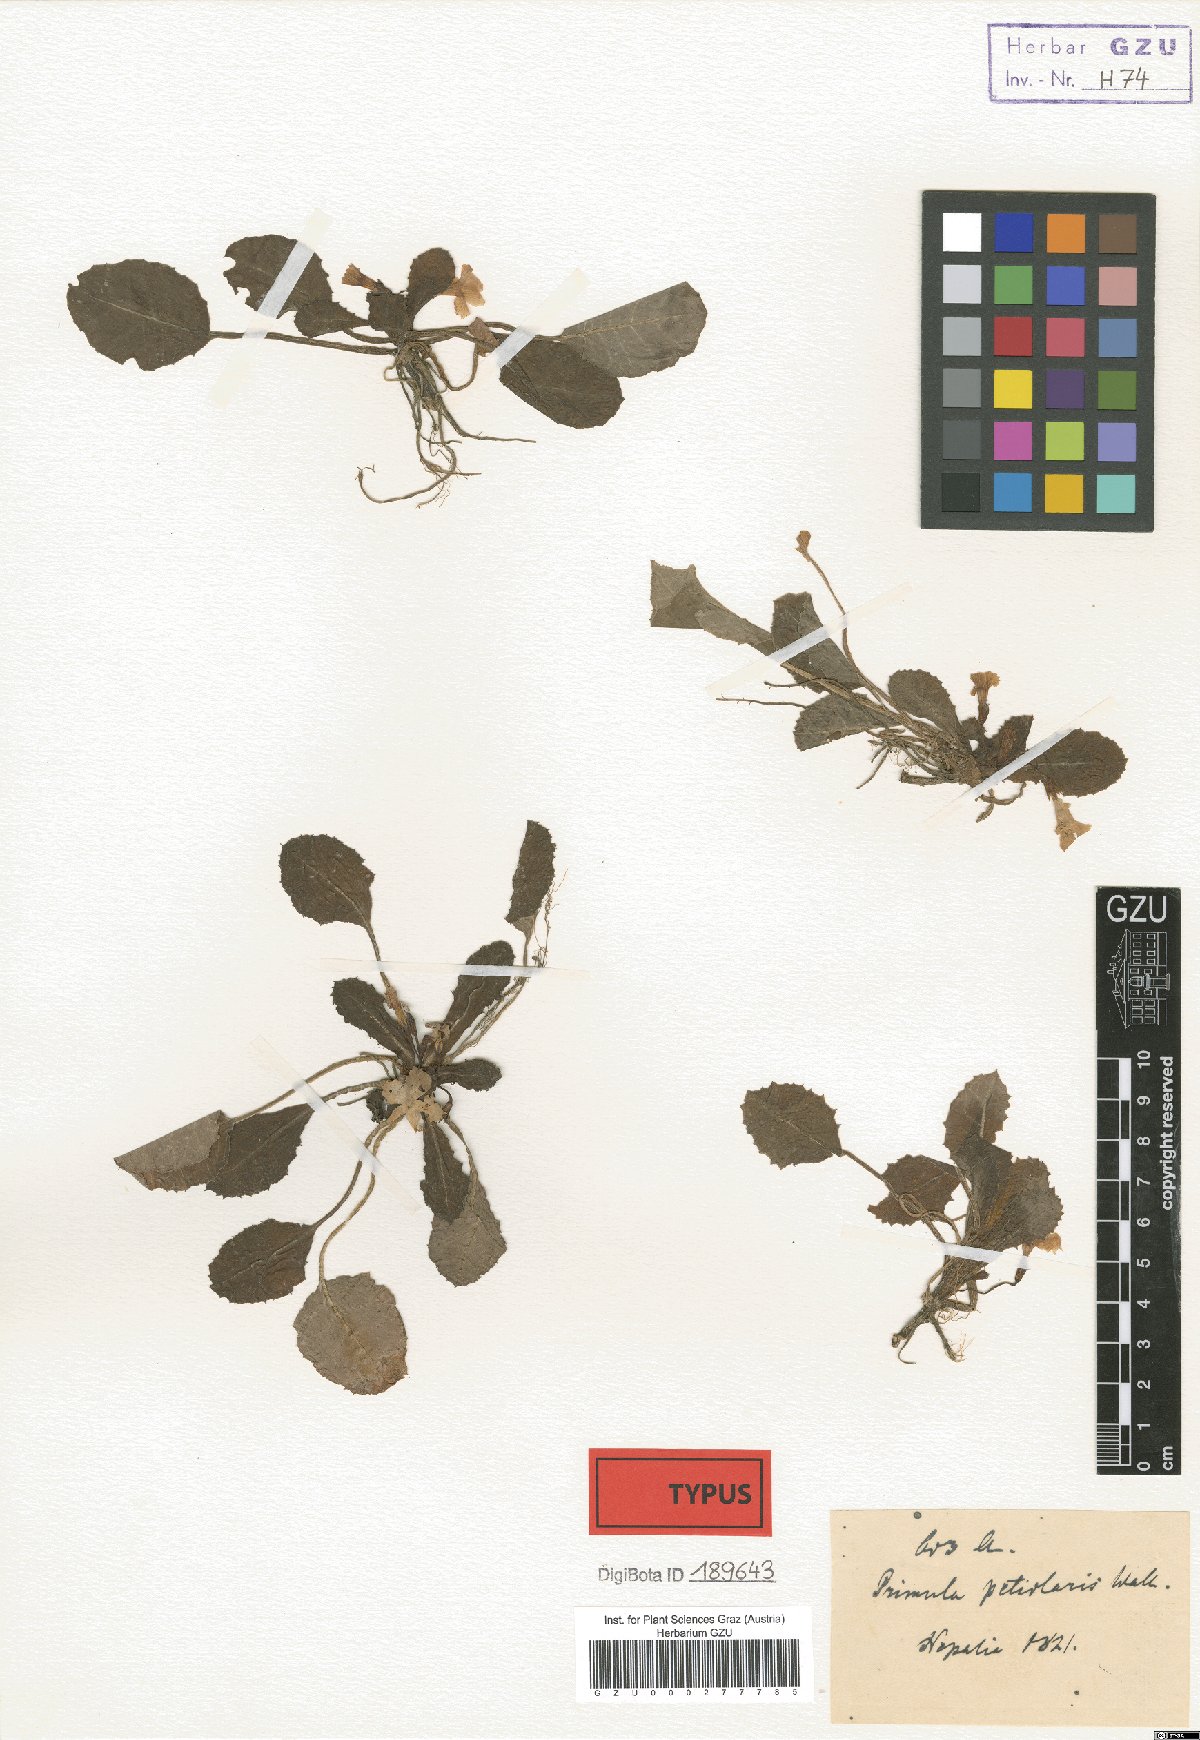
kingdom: Plantae
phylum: Tracheophyta
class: Magnoliopsida
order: Ericales
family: Primulaceae
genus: Primula
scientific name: Primula petiolaris
